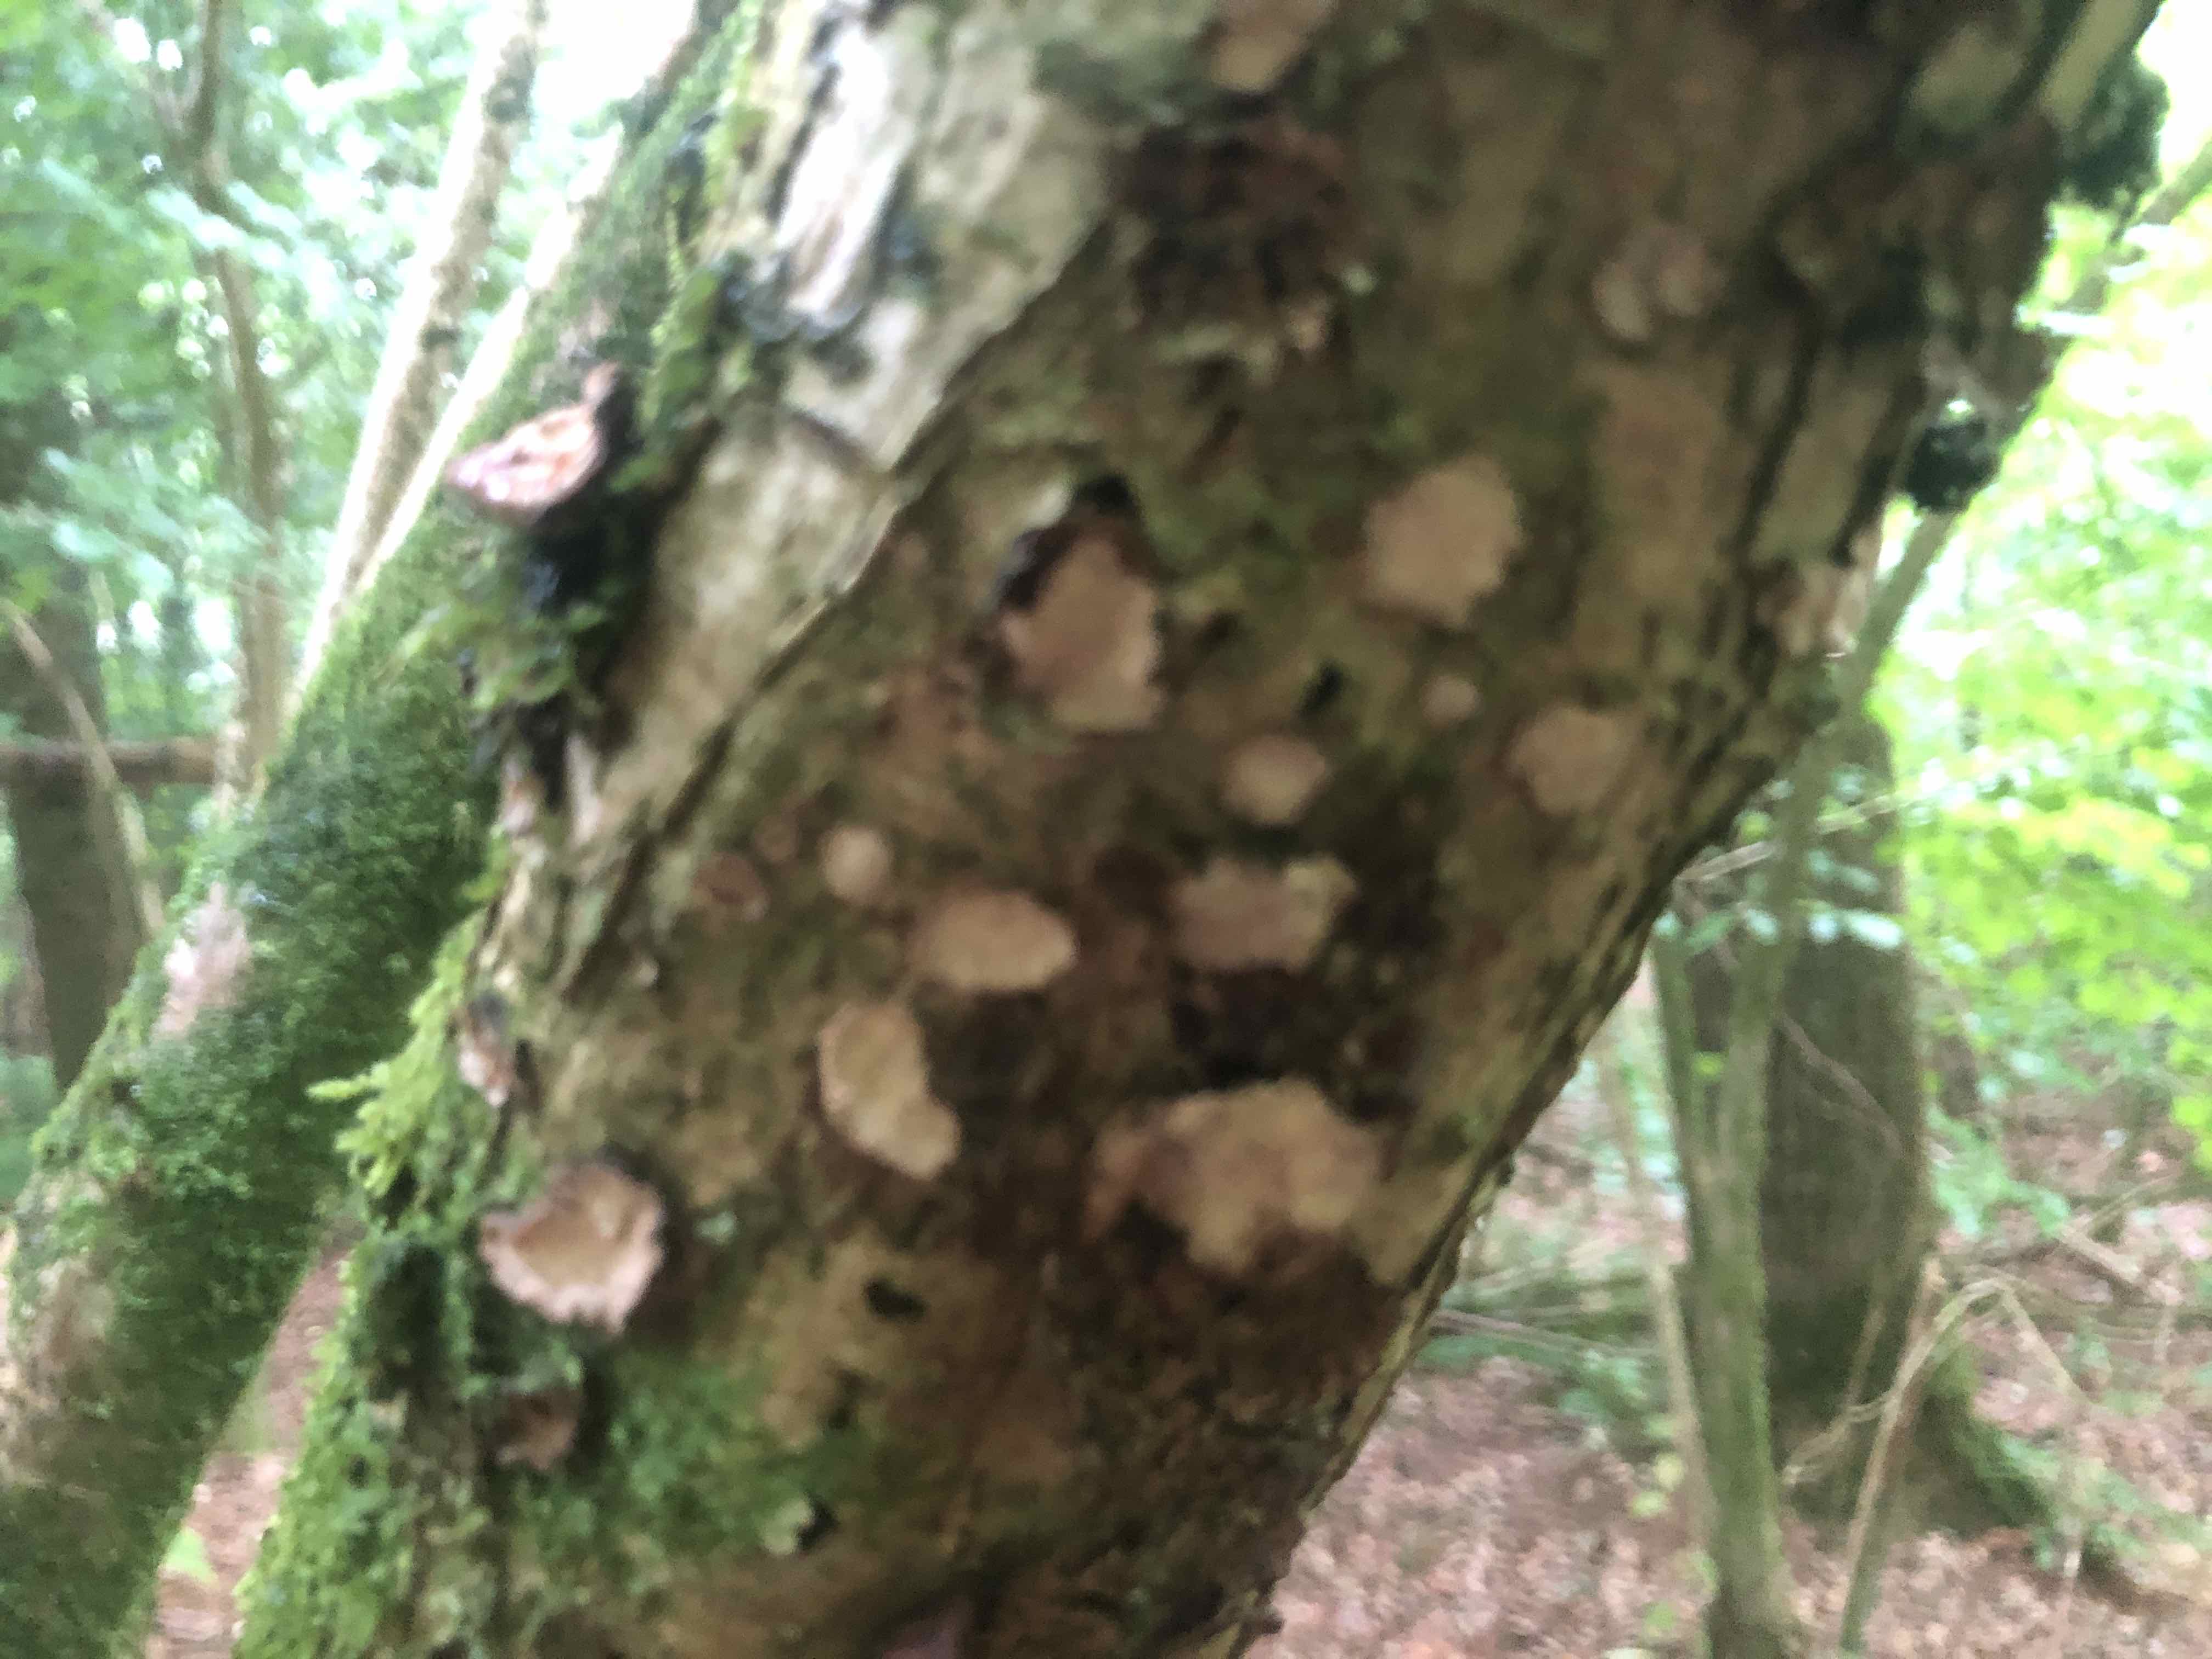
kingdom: Fungi
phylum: Basidiomycota
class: Agaricomycetes
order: Russulales
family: Stereaceae
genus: Stereum
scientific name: Stereum rugosum
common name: rynket lædersvamp
